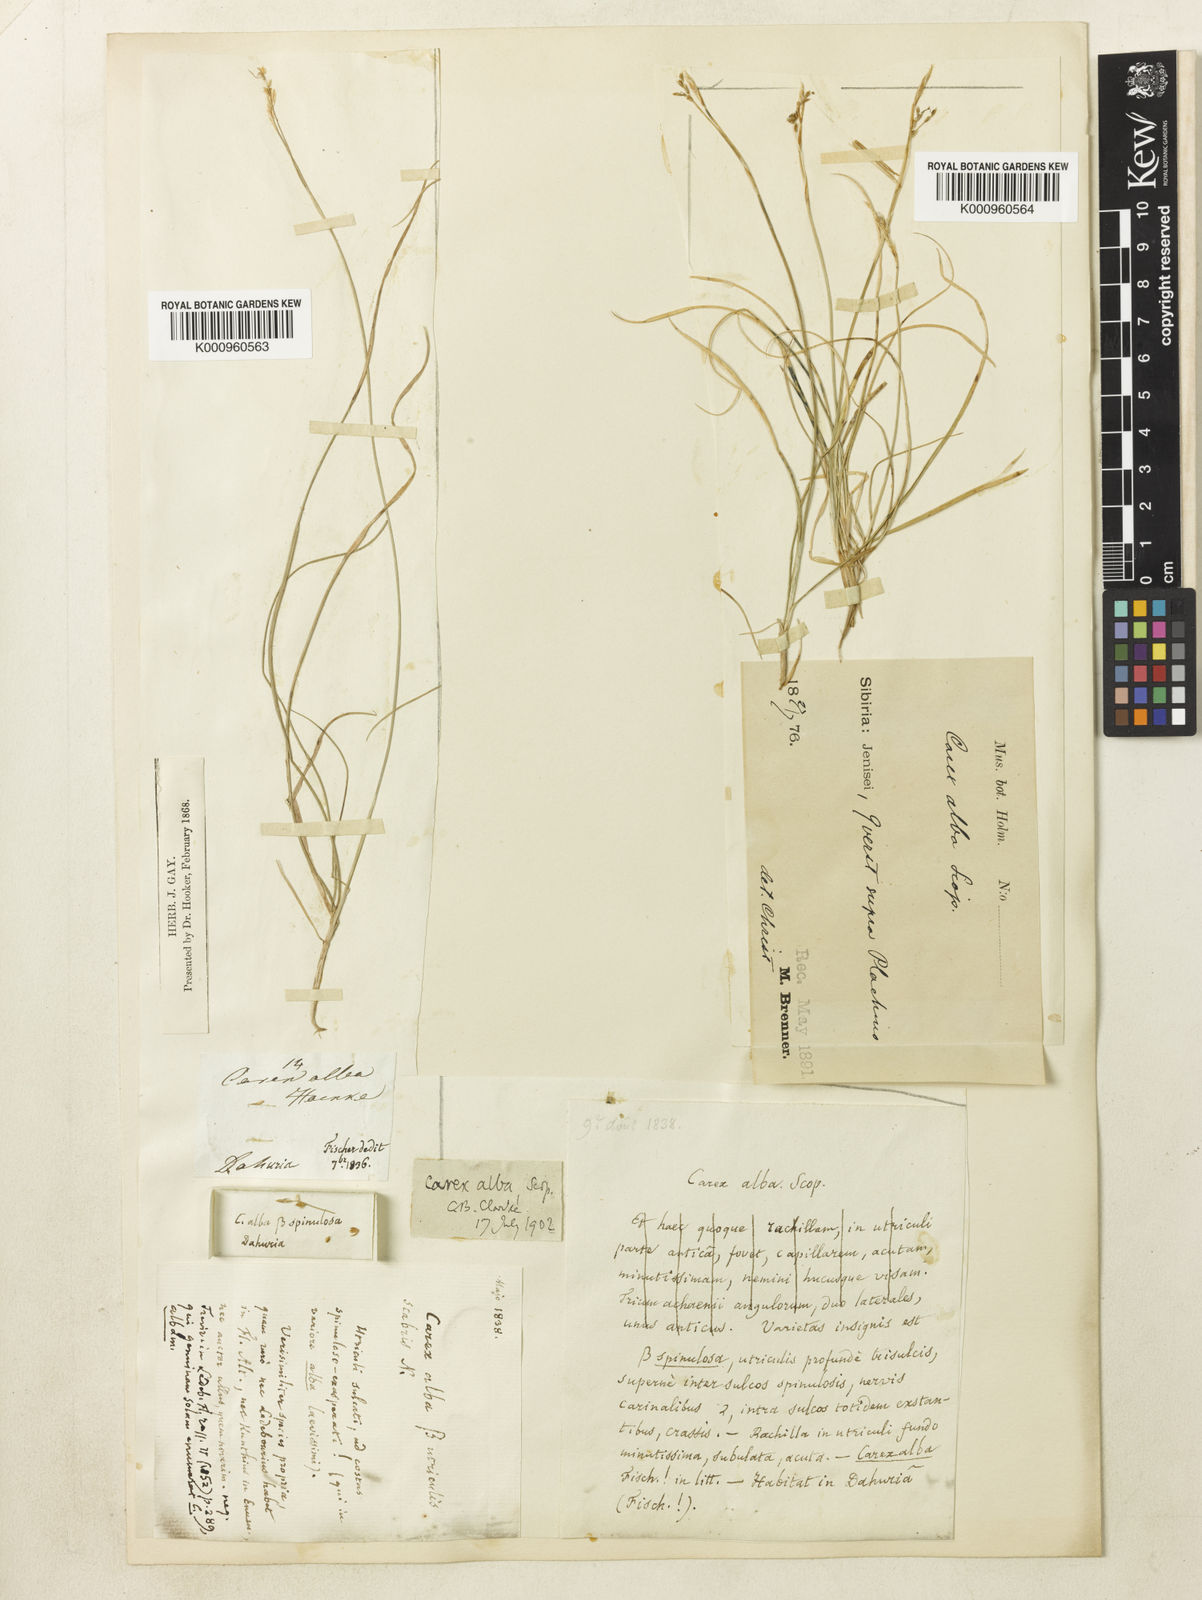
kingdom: Plantae
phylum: Tracheophyta
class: Liliopsida
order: Poales
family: Cyperaceae
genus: Carex
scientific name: Carex alba
